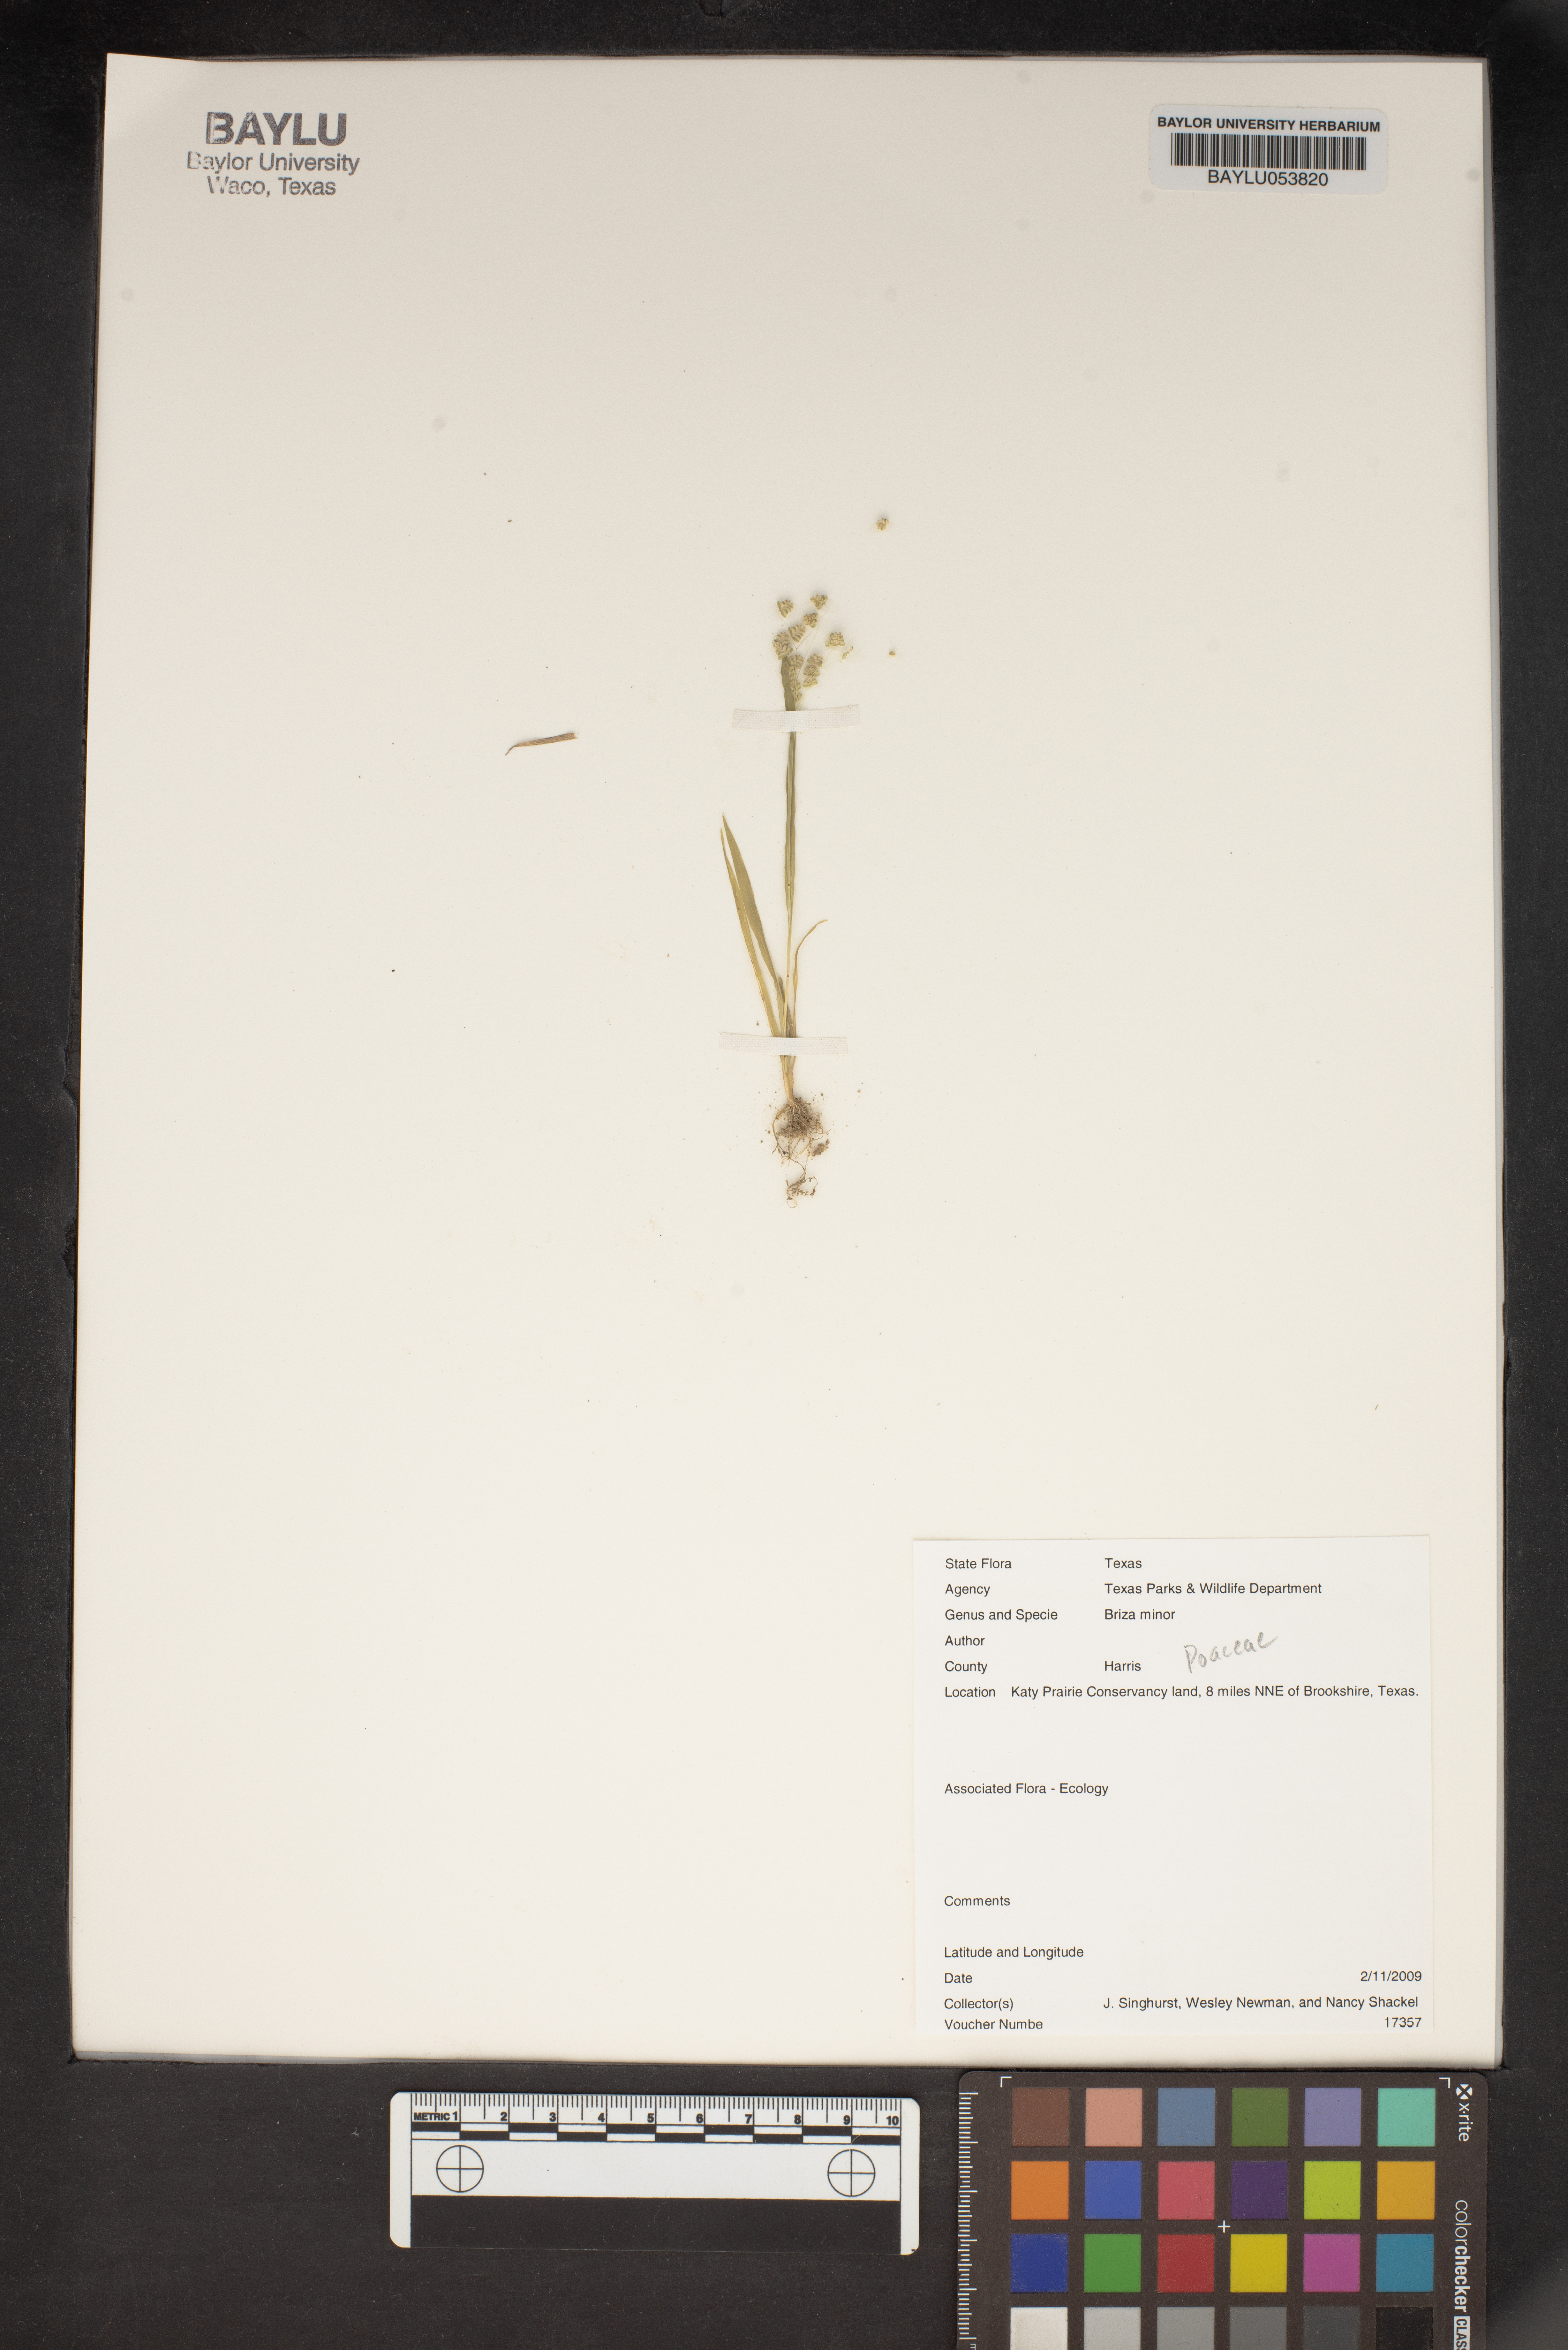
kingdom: Plantae
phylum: Tracheophyta
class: Liliopsida
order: Poales
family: Poaceae
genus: Briza
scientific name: Briza minor
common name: Lesser quaking-grass
